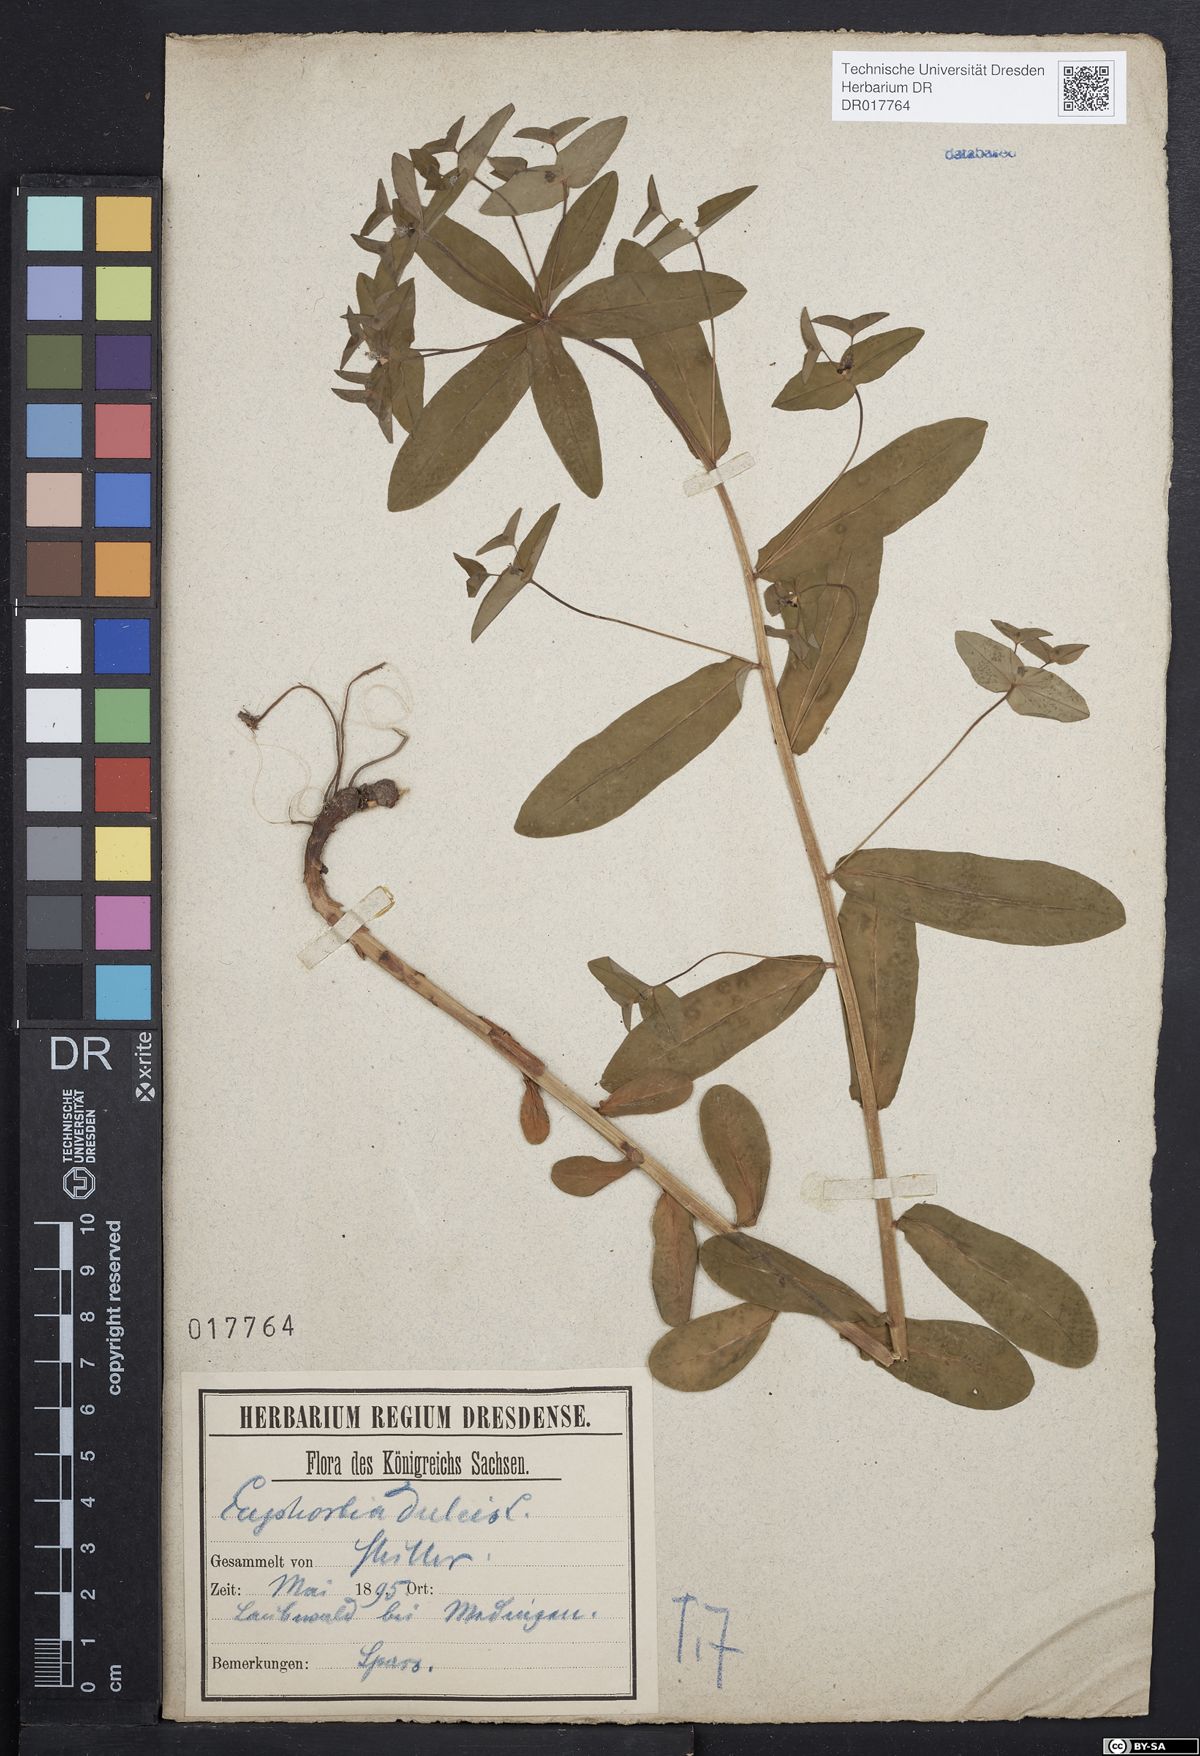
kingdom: Plantae
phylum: Tracheophyta
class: Magnoliopsida
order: Malpighiales
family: Euphorbiaceae
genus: Euphorbia
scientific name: Euphorbia dulcis
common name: Sweet spurge
